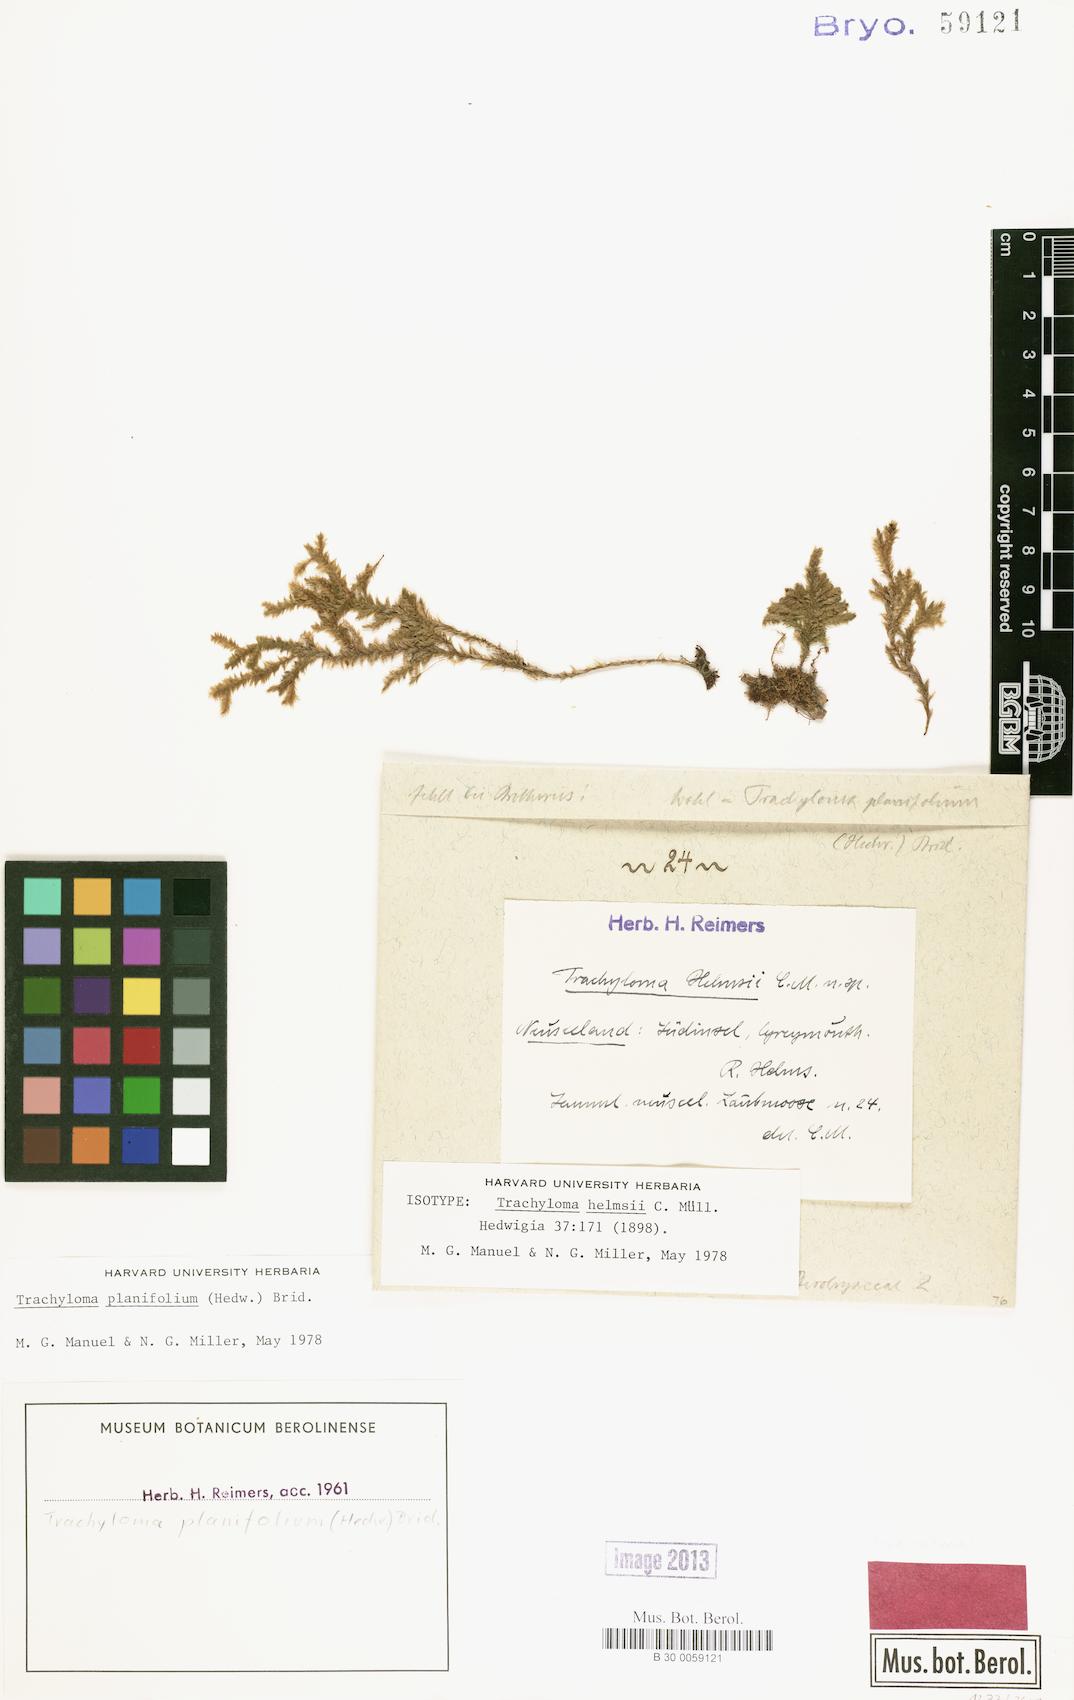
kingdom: Plantae
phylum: Bryophyta
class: Bryopsida
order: Hypnales
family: Trachylomataceae
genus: Trachyloma
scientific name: Trachyloma planifolium
